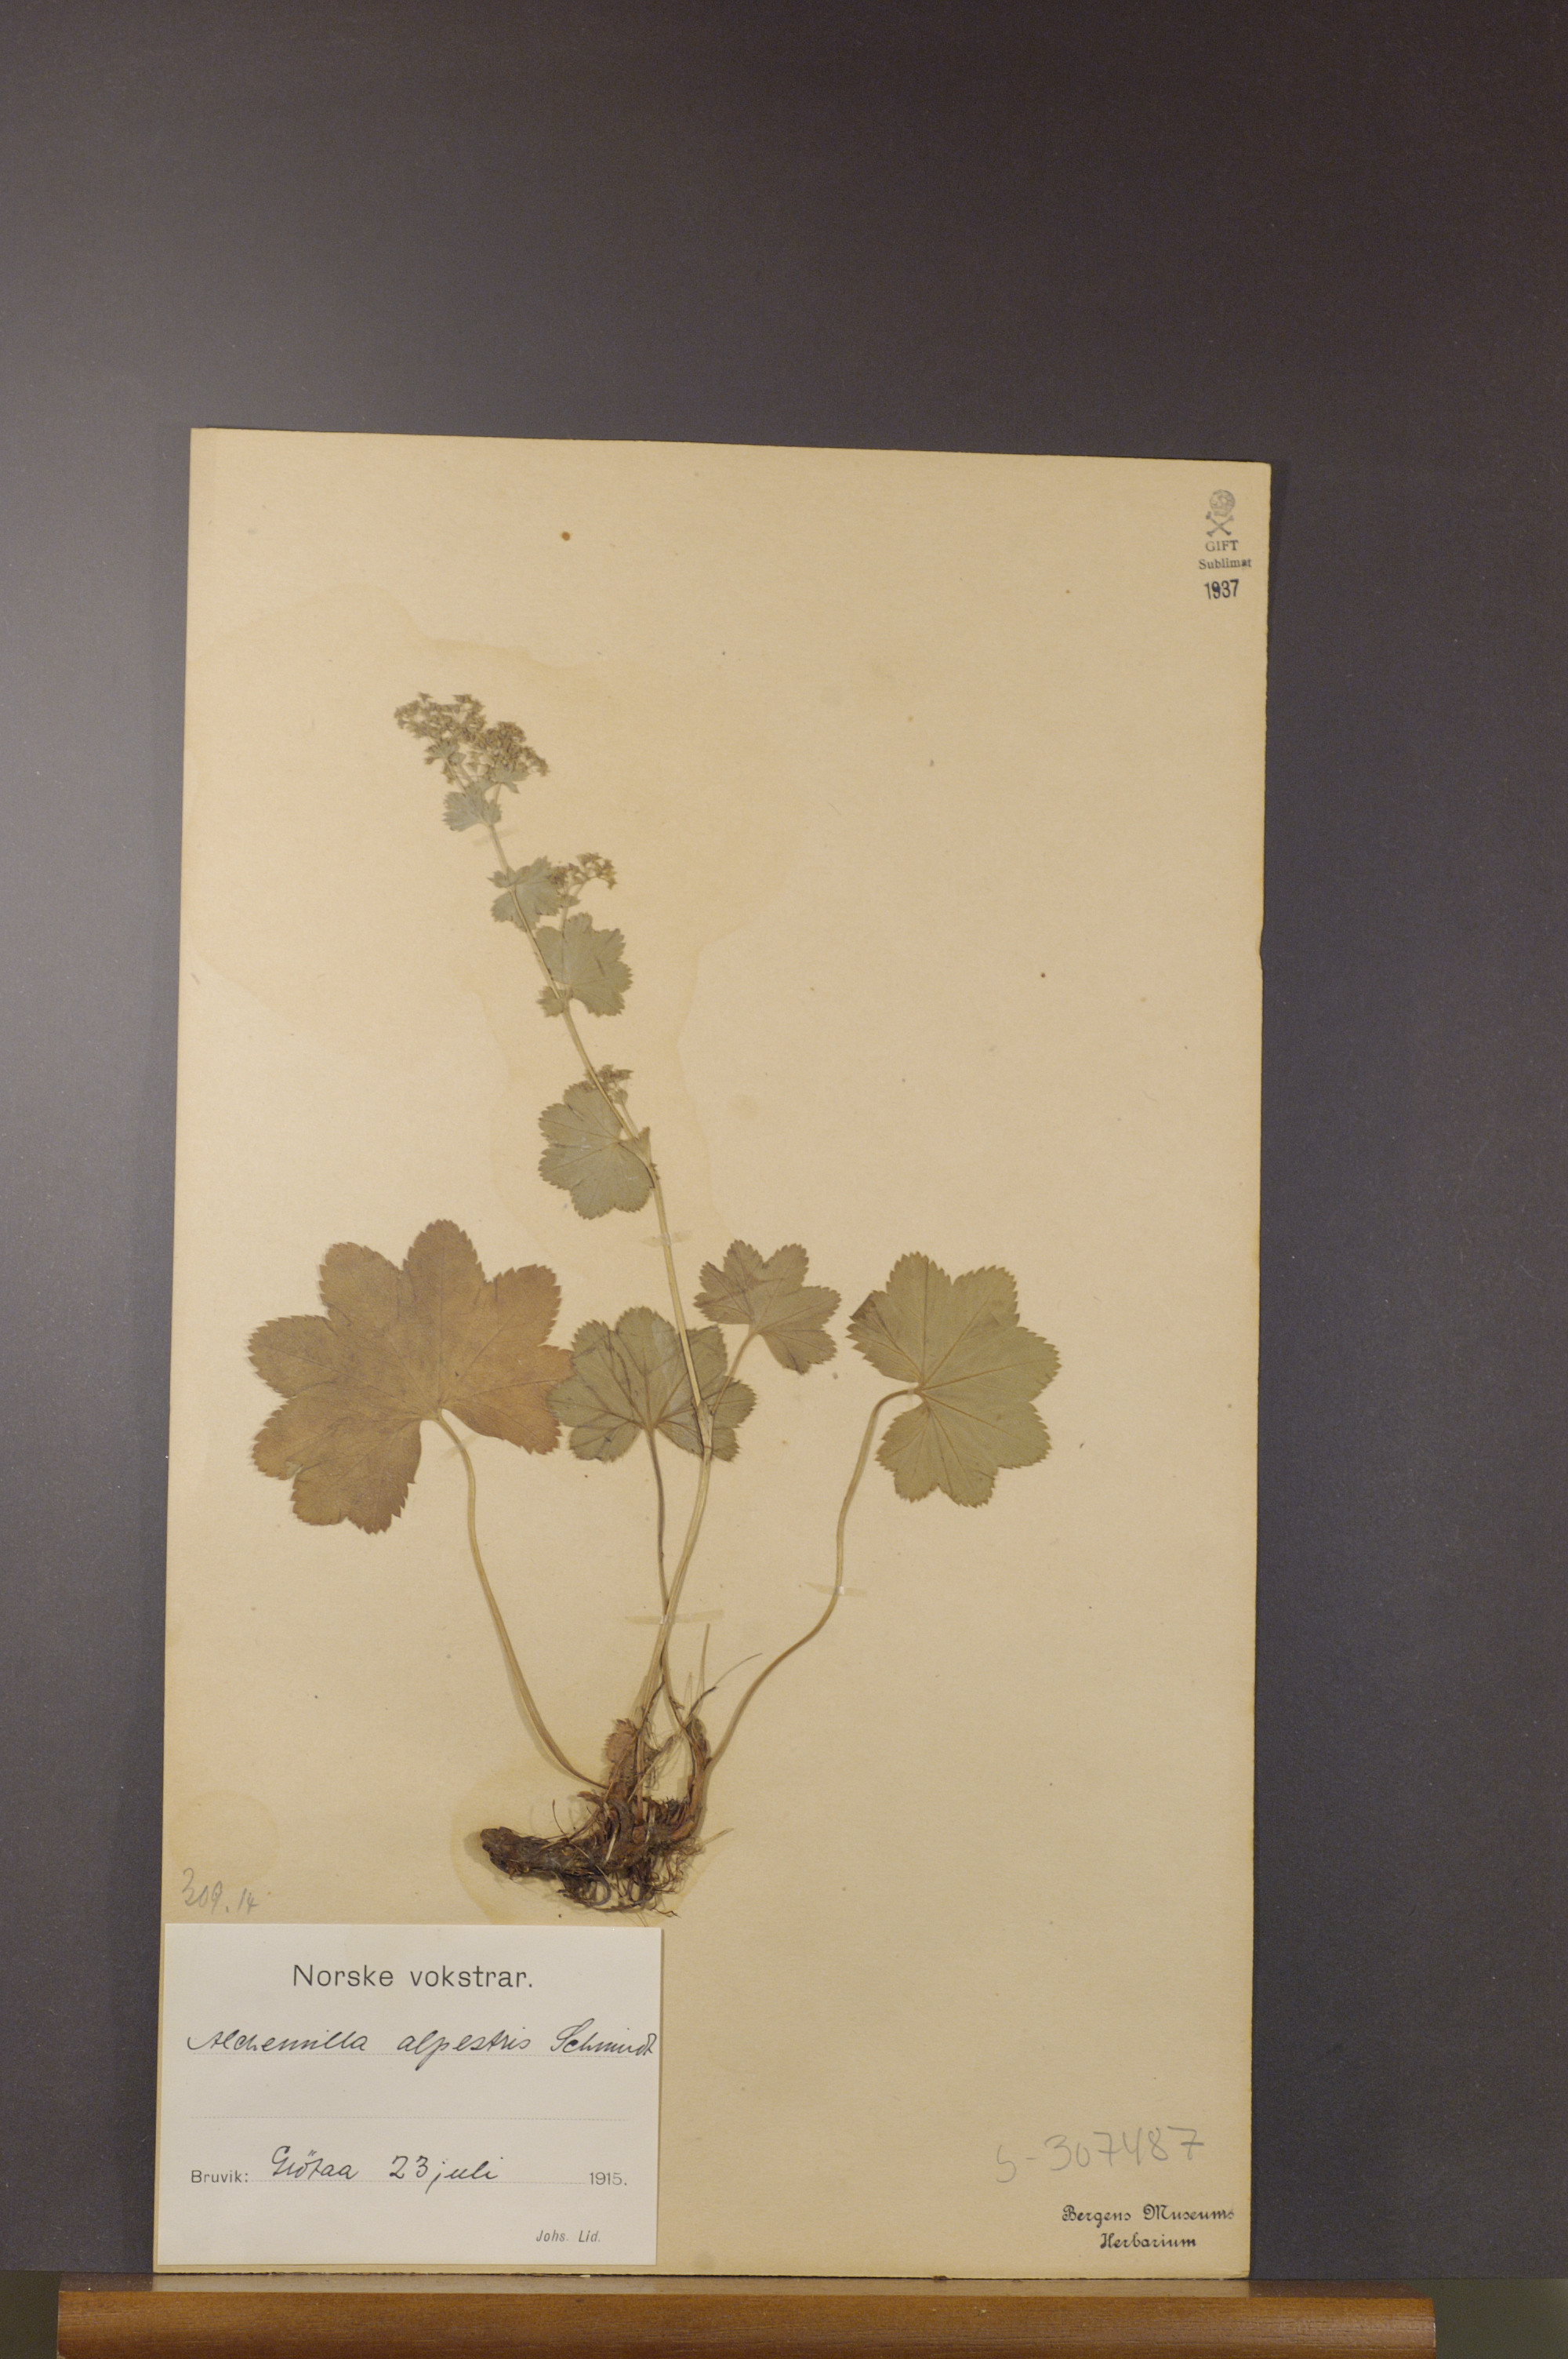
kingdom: Plantae
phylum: Tracheophyta
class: Magnoliopsida
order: Rosales
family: Rosaceae
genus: Alchemilla
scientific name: Alchemilla glabra
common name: Smooth lady's-mantle
